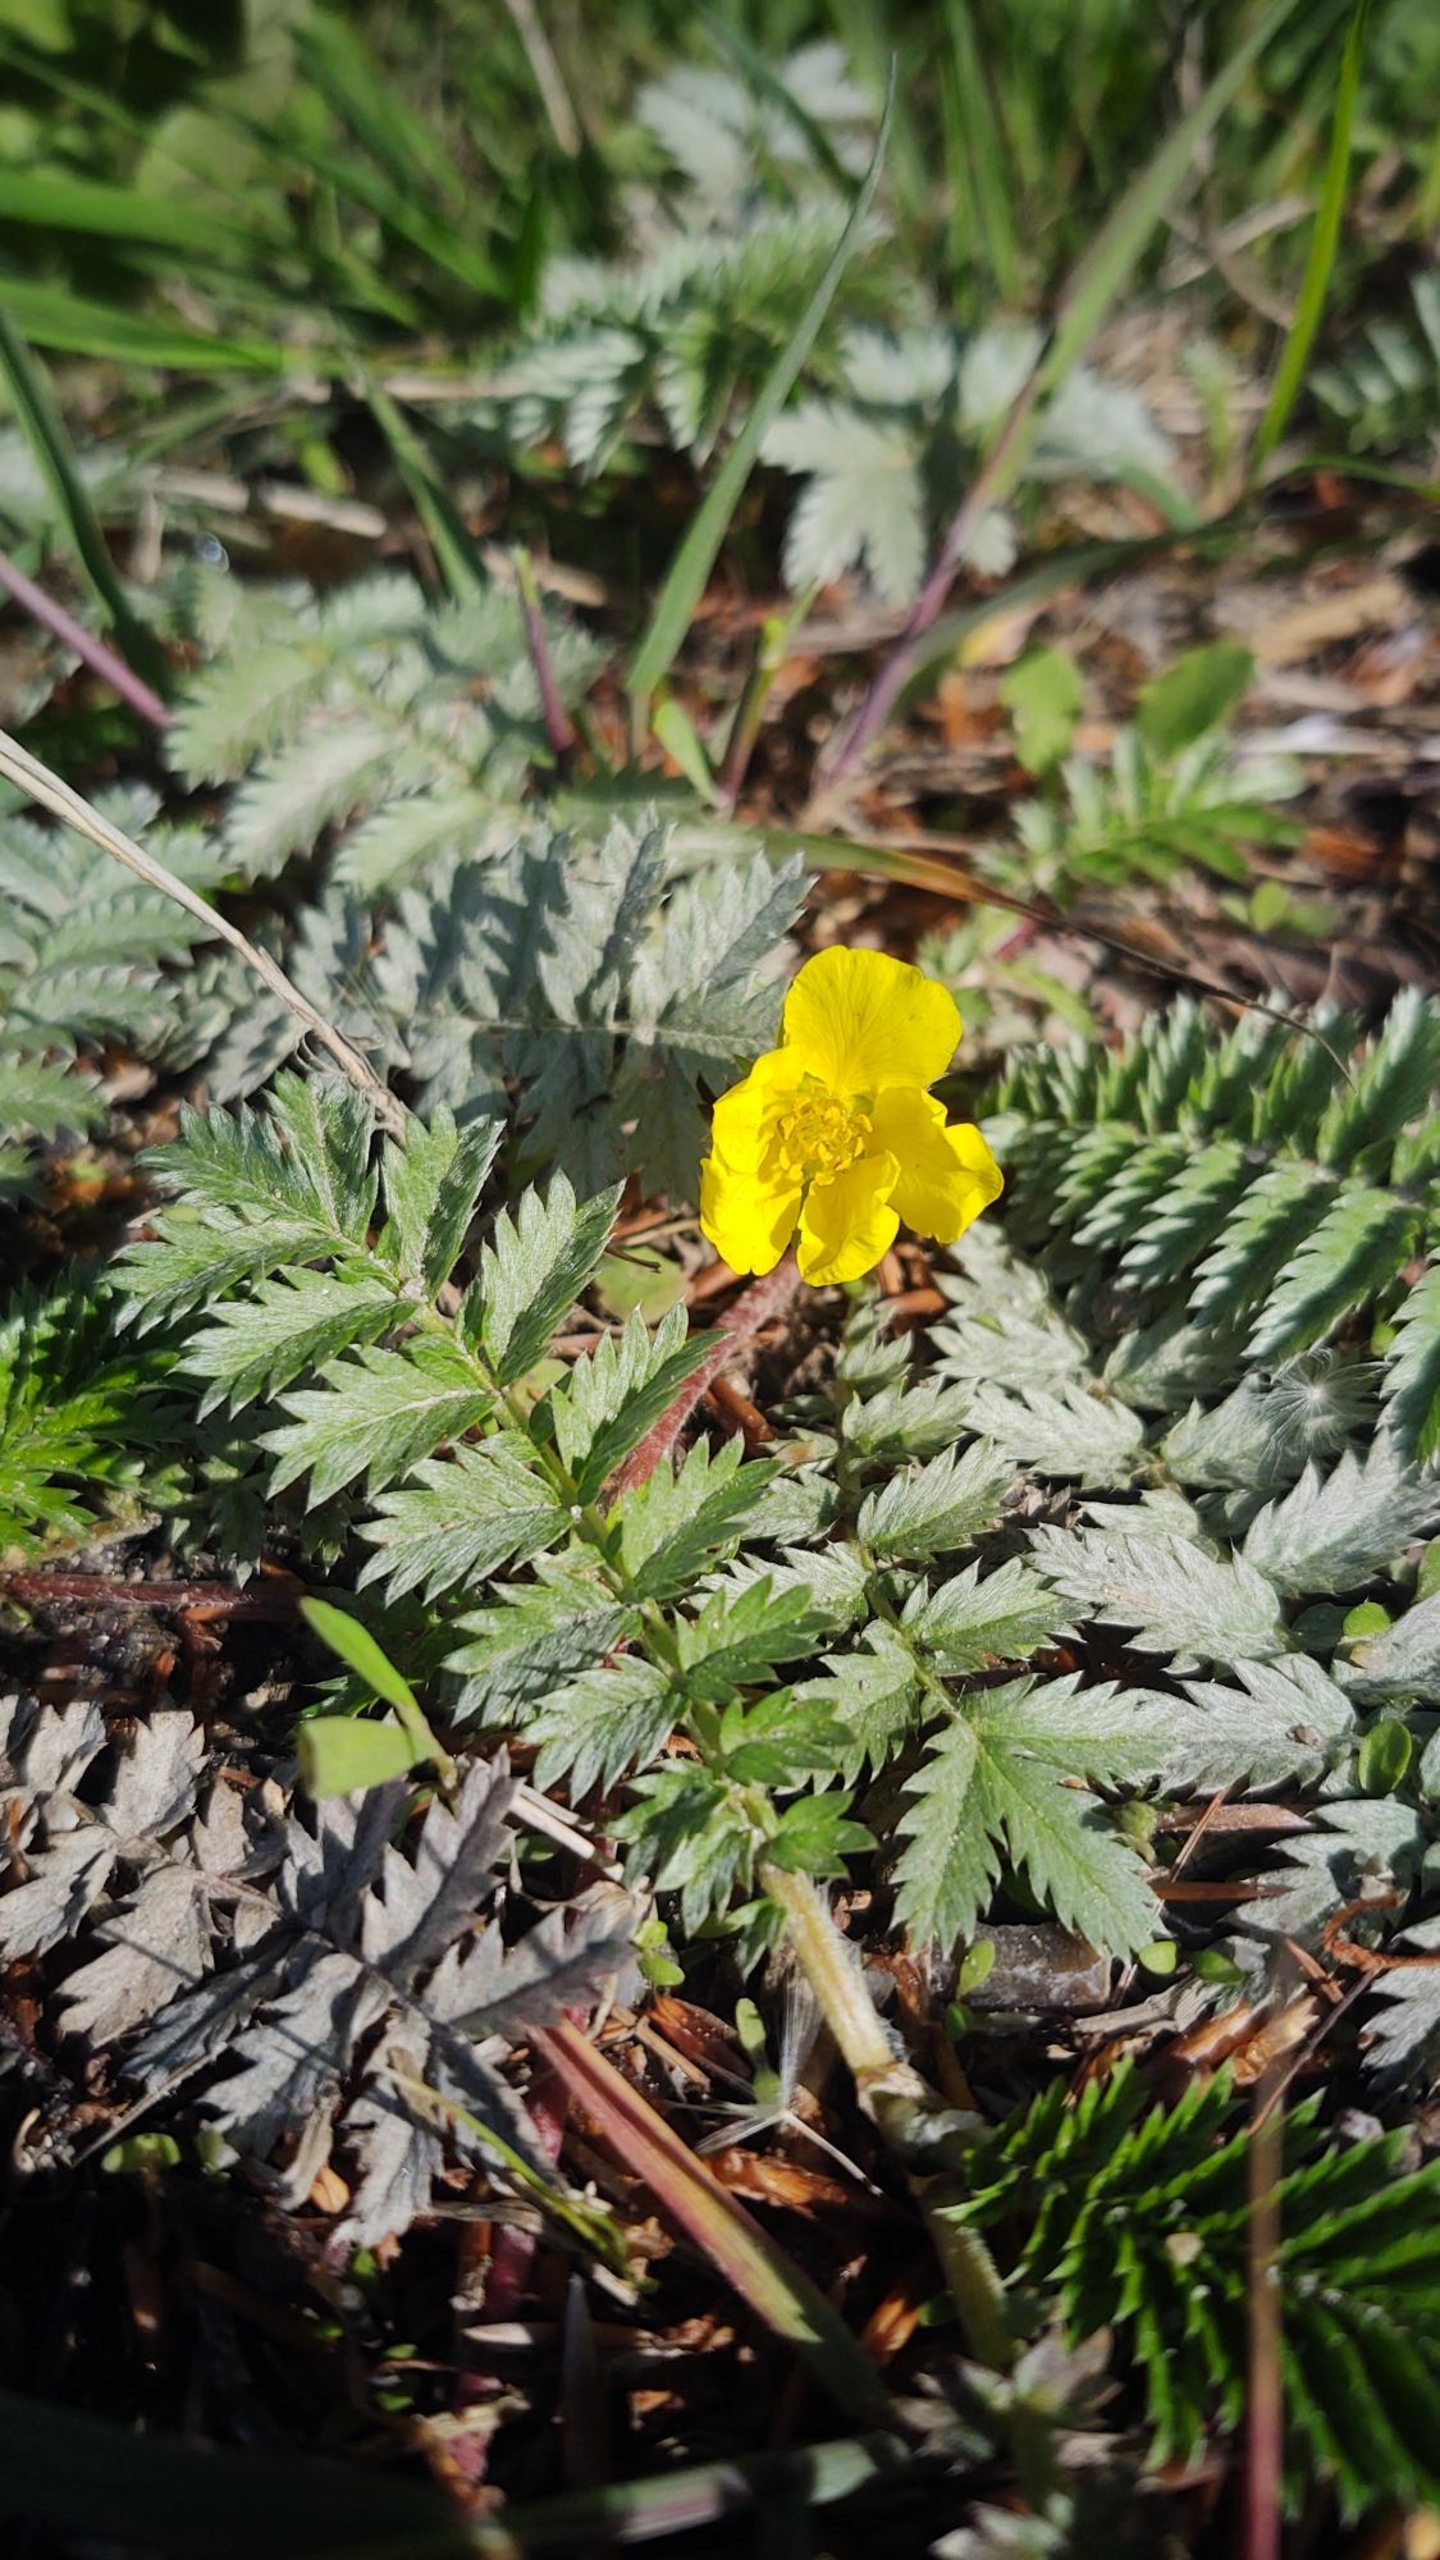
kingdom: Plantae
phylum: Tracheophyta
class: Magnoliopsida
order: Rosales
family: Rosaceae
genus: Argentina
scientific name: Argentina anserina
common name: Gåsepotentil
